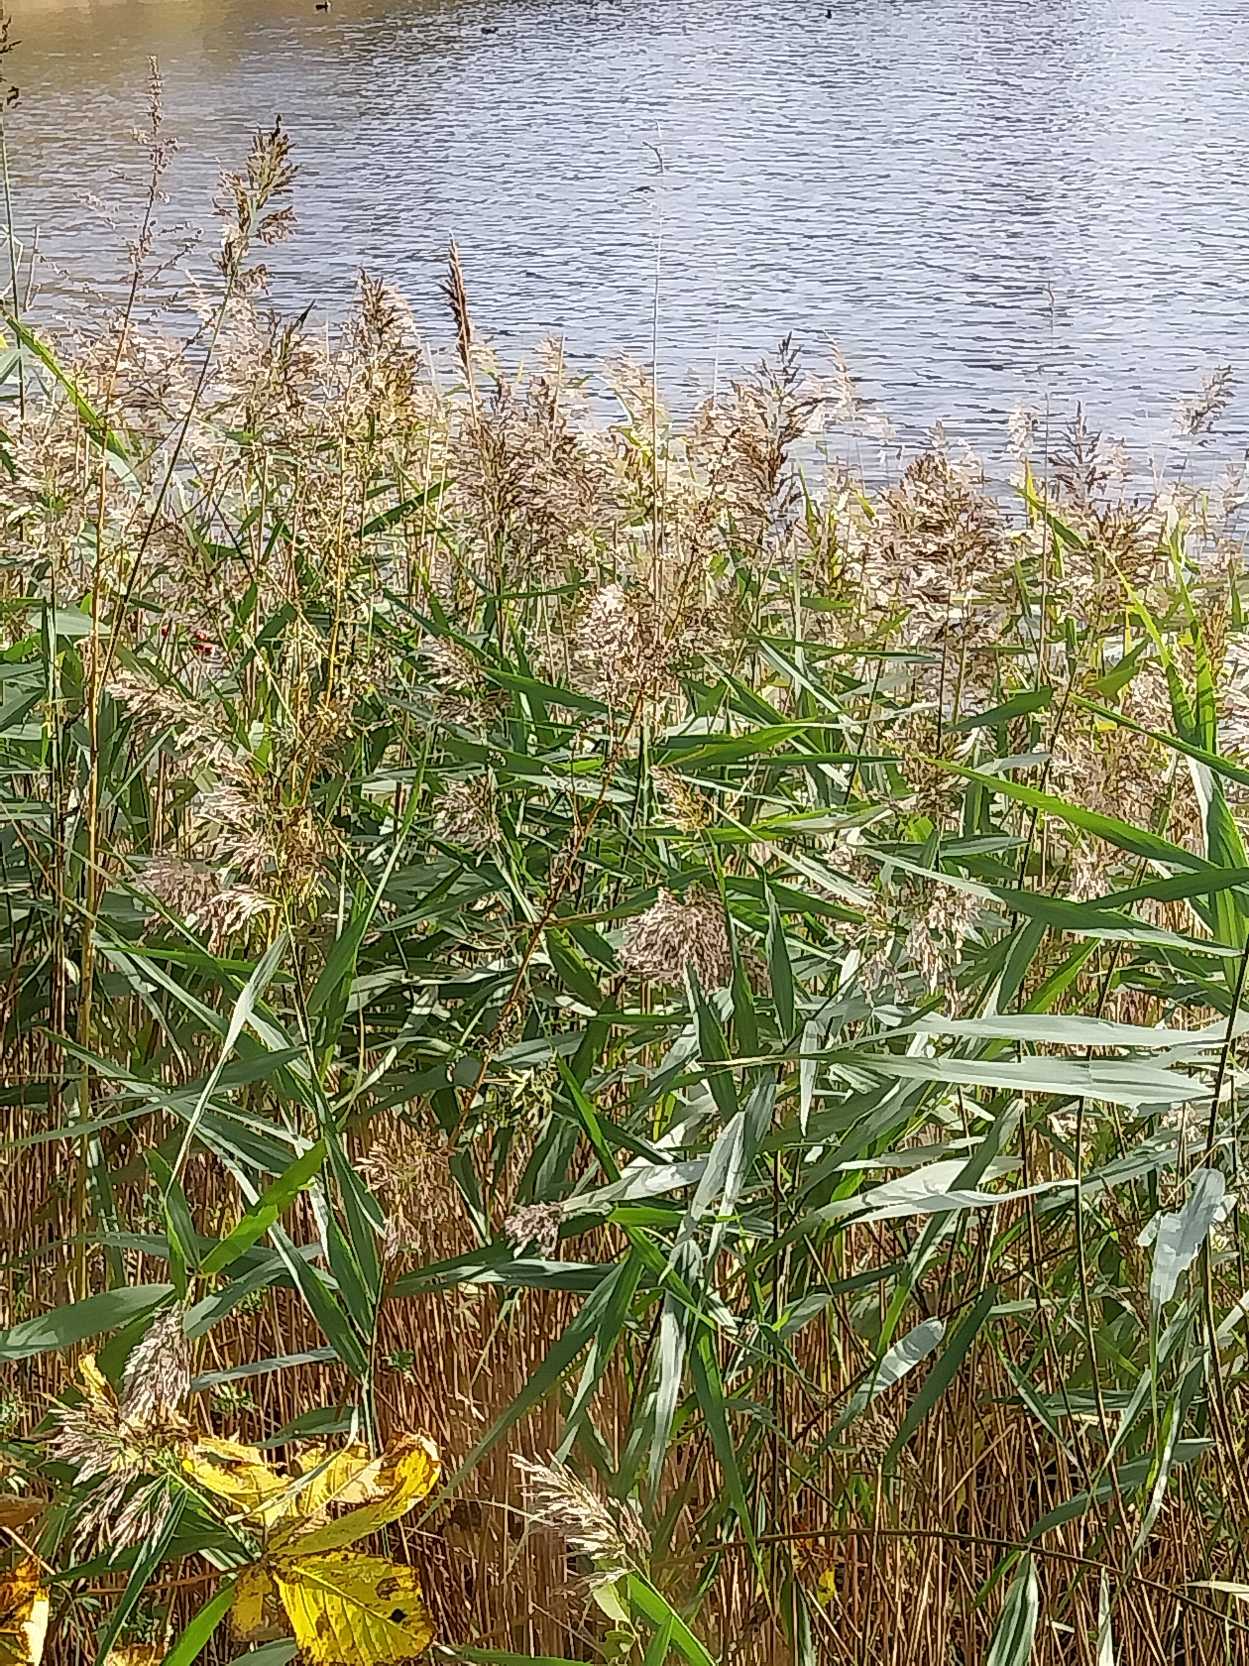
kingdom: Plantae
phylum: Tracheophyta
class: Liliopsida
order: Poales
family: Poaceae
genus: Phragmites
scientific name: Phragmites australis
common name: Tagrør
